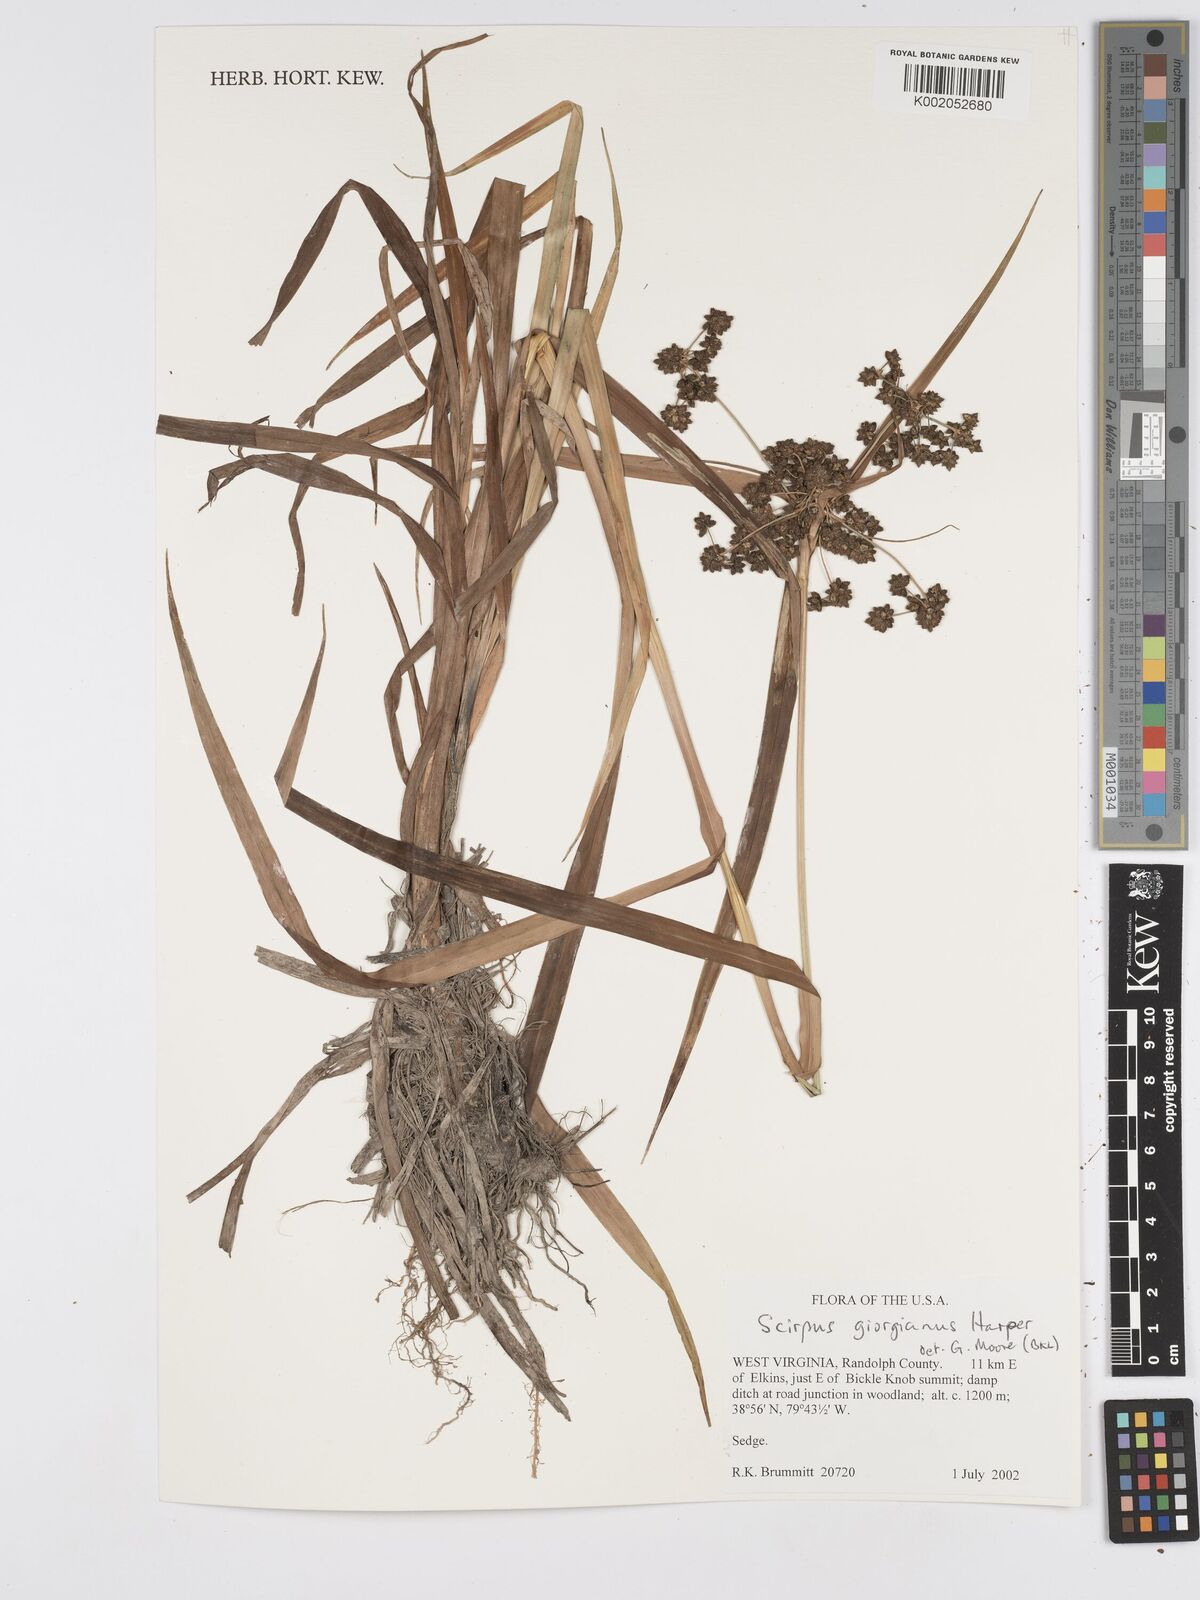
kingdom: Plantae
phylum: Tracheophyta
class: Liliopsida
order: Poales
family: Cyperaceae
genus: Scirpus
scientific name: Scirpus georgianus
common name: Bristleless dark-green bulrush
